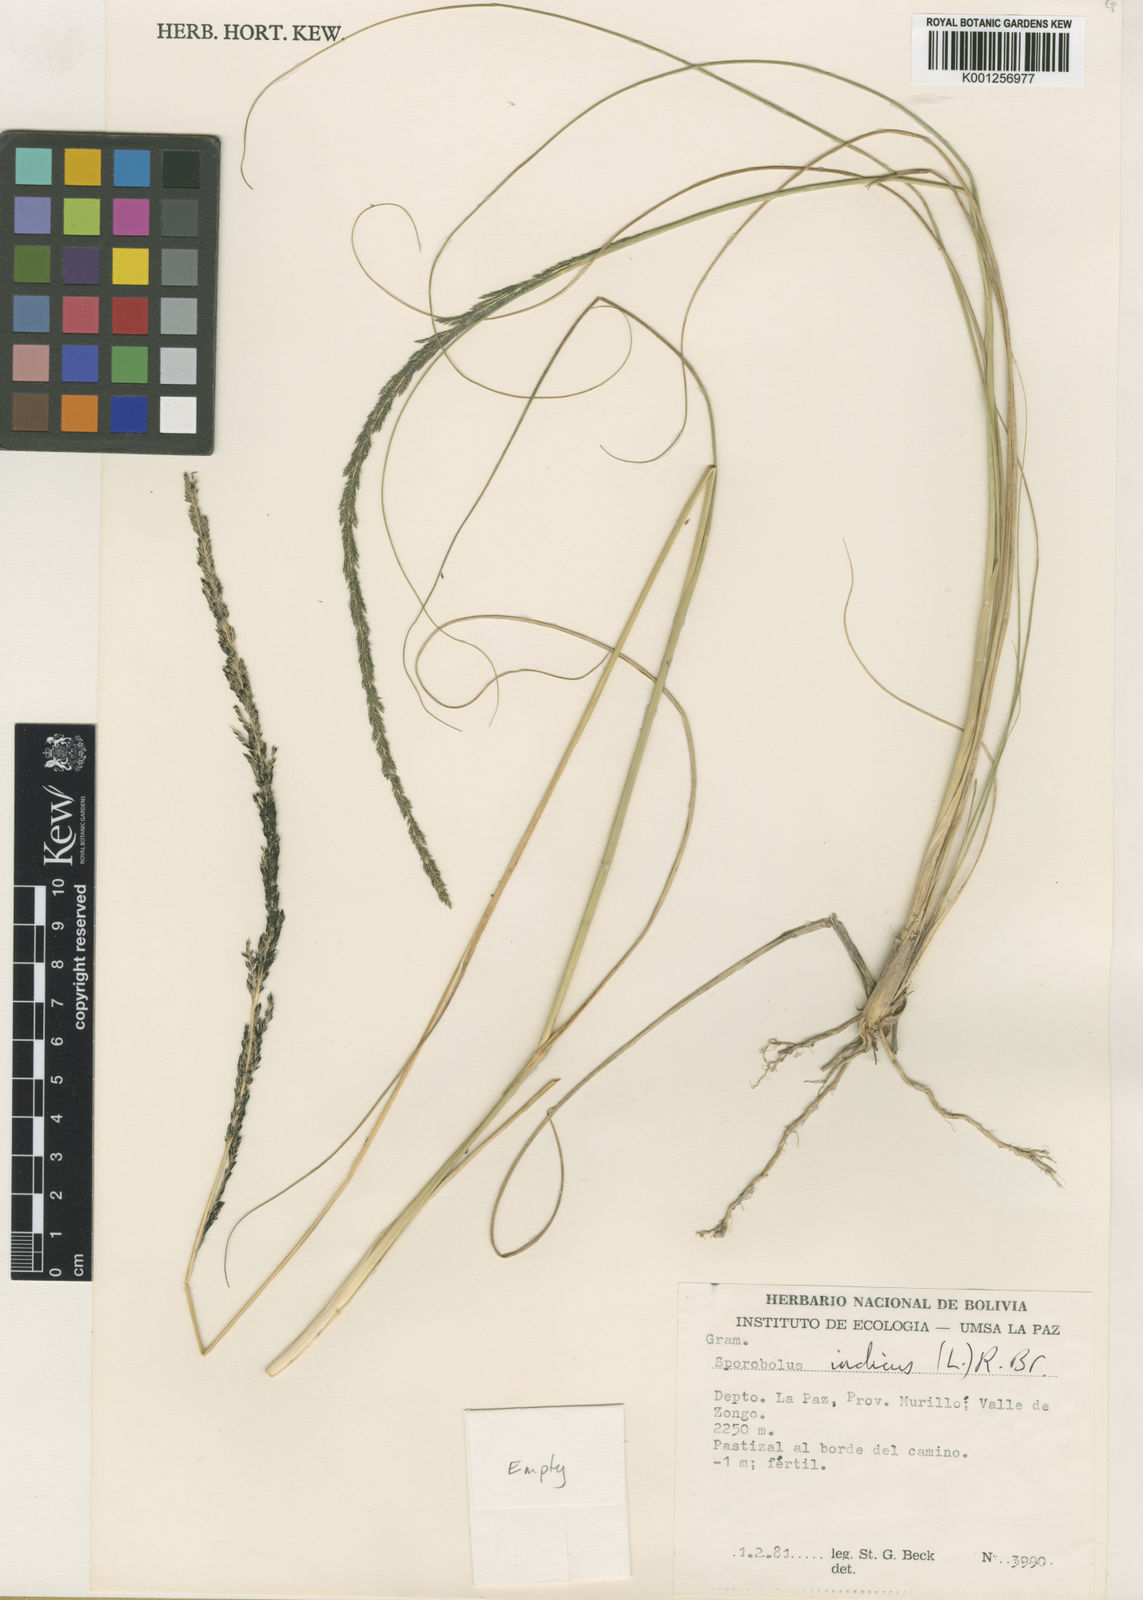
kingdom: Plantae
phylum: Tracheophyta
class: Liliopsida
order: Poales
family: Poaceae
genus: Sporobolus
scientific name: Sporobolus indicus
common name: Smut grass
